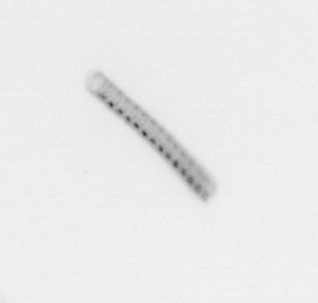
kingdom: Chromista
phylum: Ochrophyta
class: Bacillariophyceae
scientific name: Bacillariophyceae
